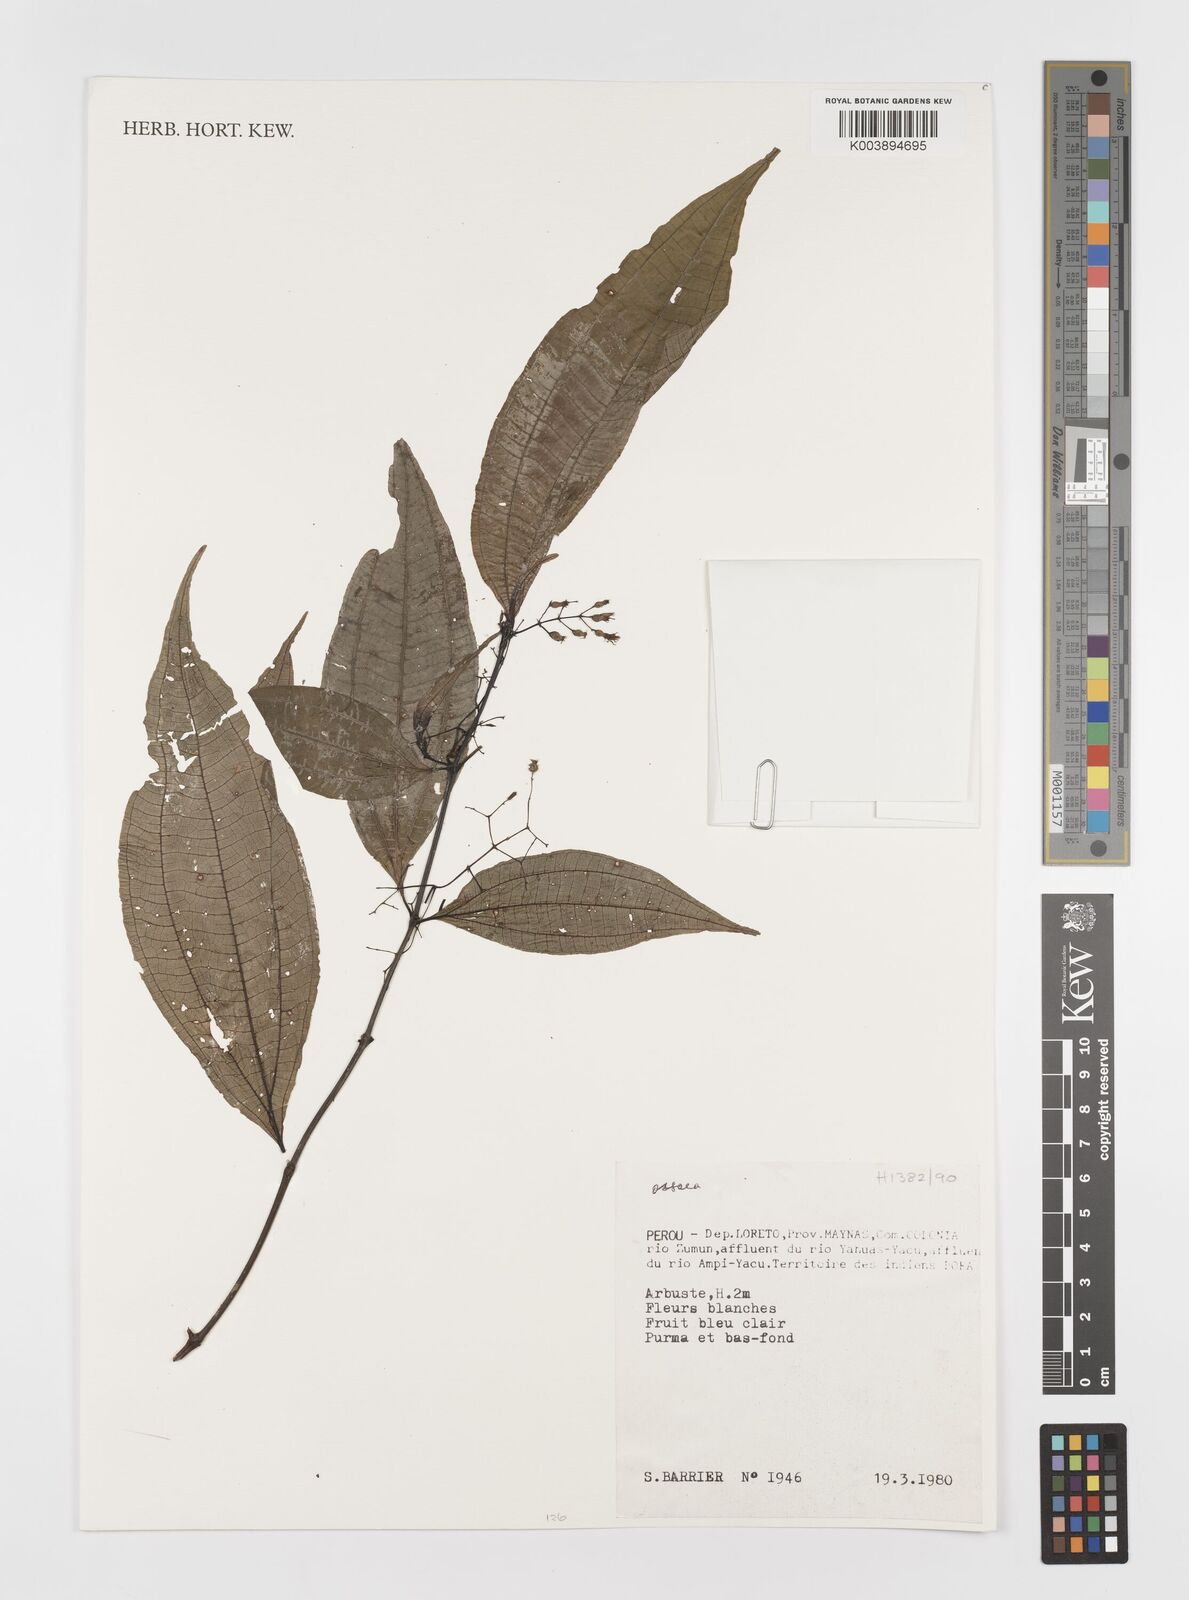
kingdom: Plantae
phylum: Tracheophyta
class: Magnoliopsida
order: Myrtales
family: Melastomataceae
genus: Ossaea
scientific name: Ossaea
